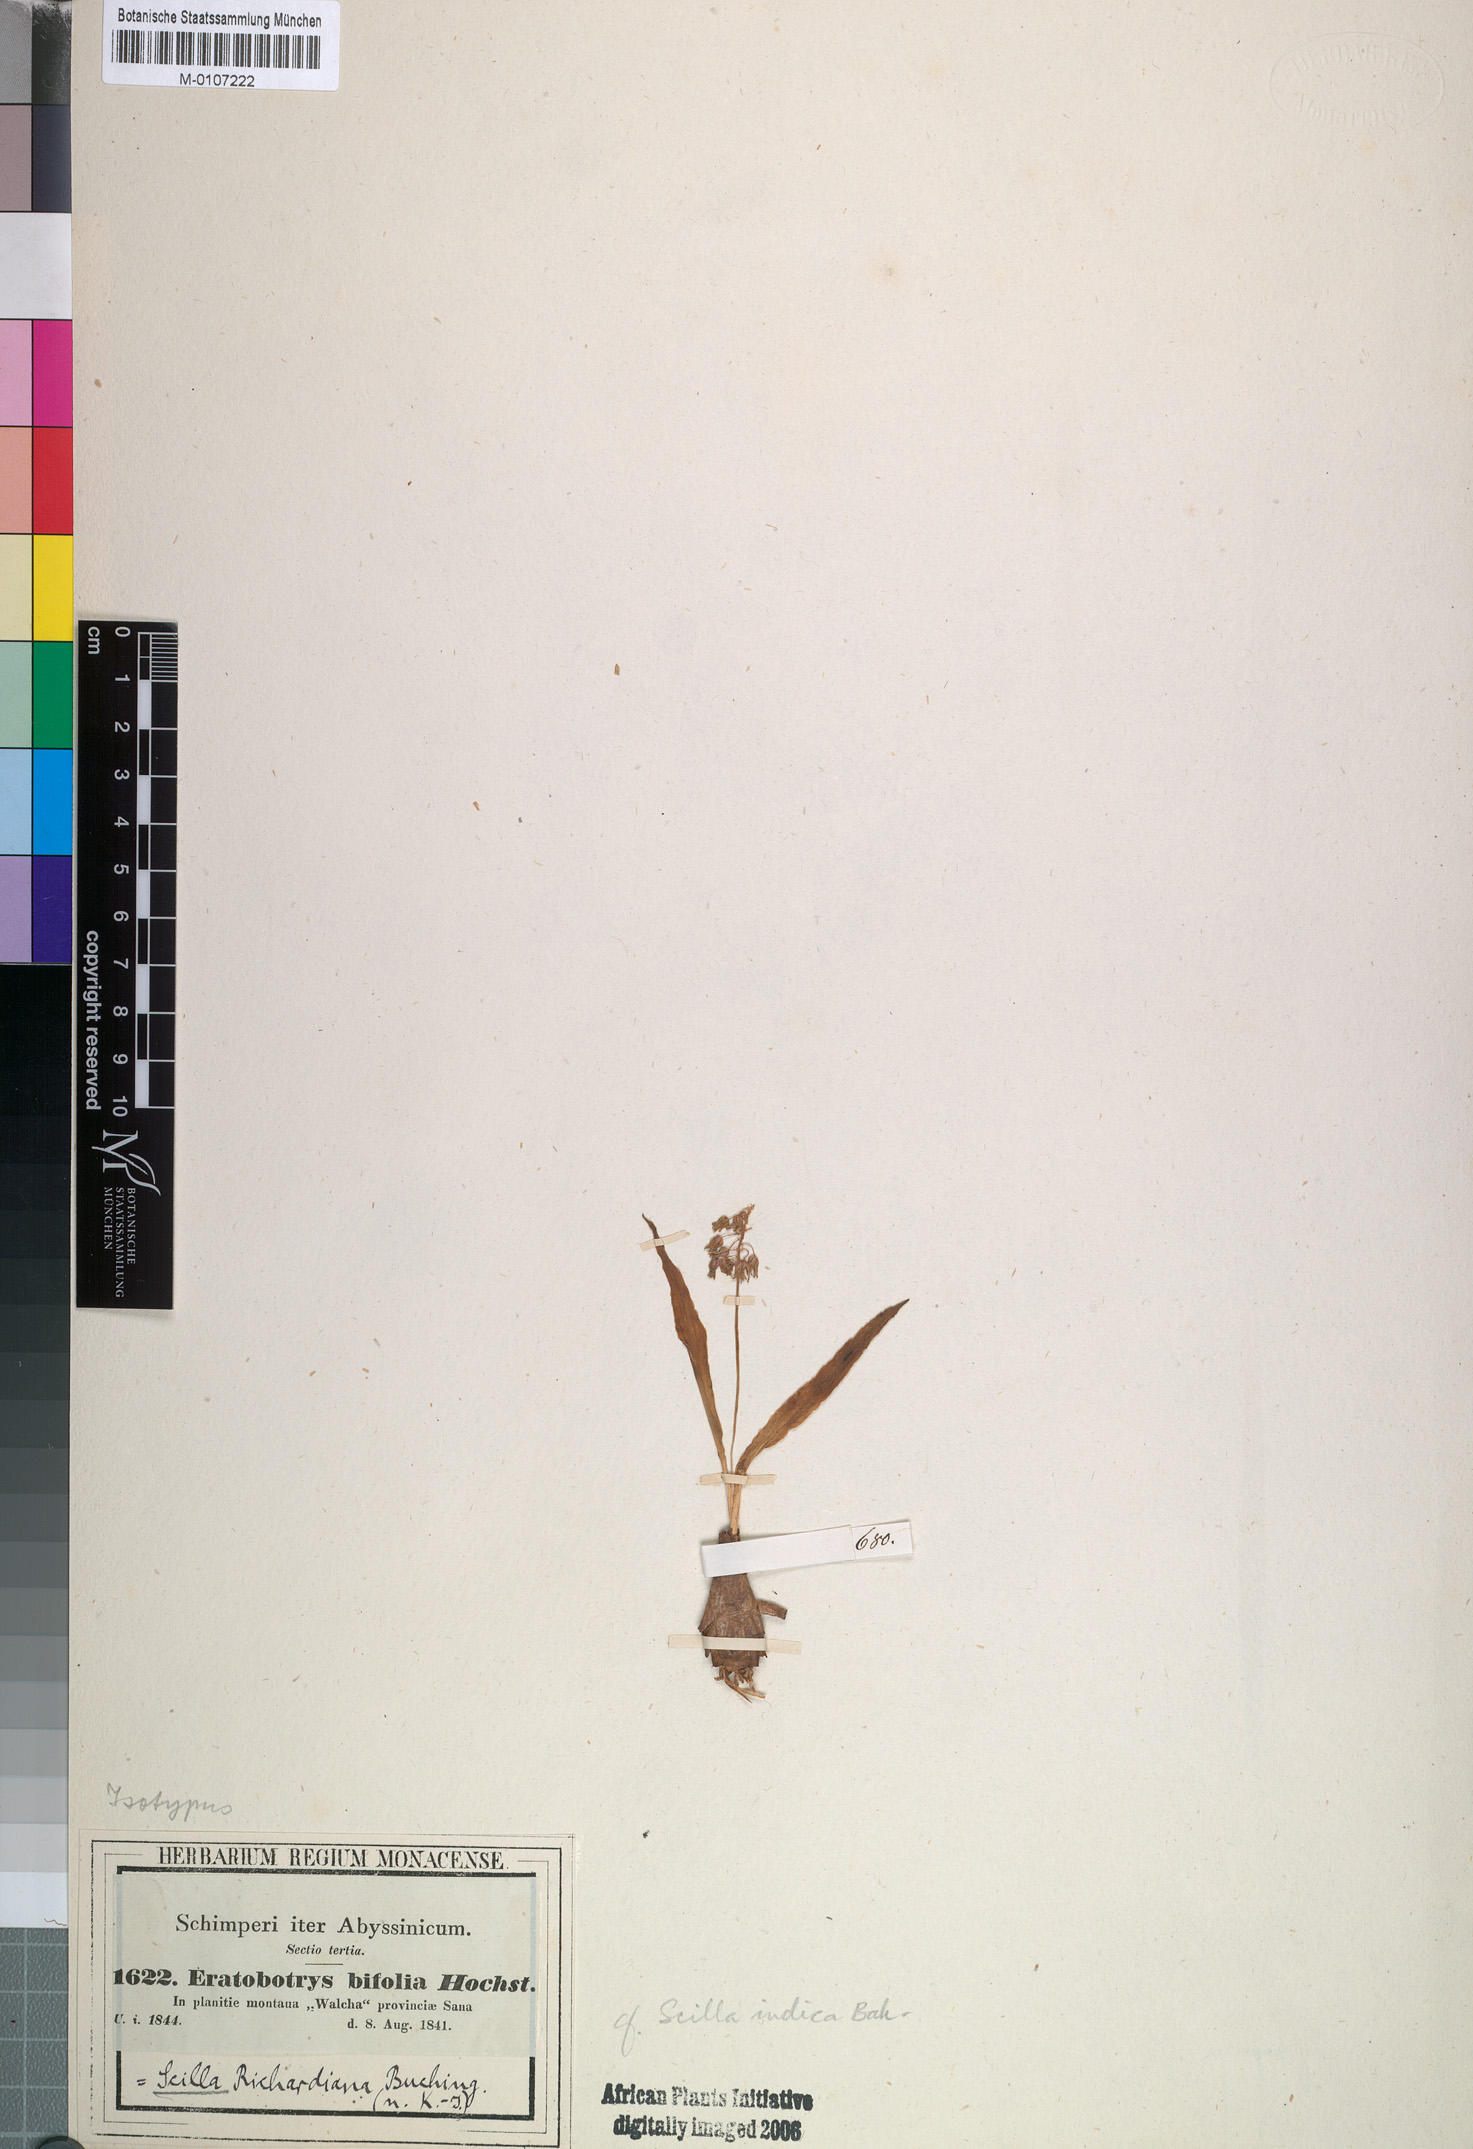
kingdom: Plantae
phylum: Tracheophyta
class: Liliopsida
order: Asparagales
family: Asparagaceae
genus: Ledebouria
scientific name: Ledebouria revoluta
